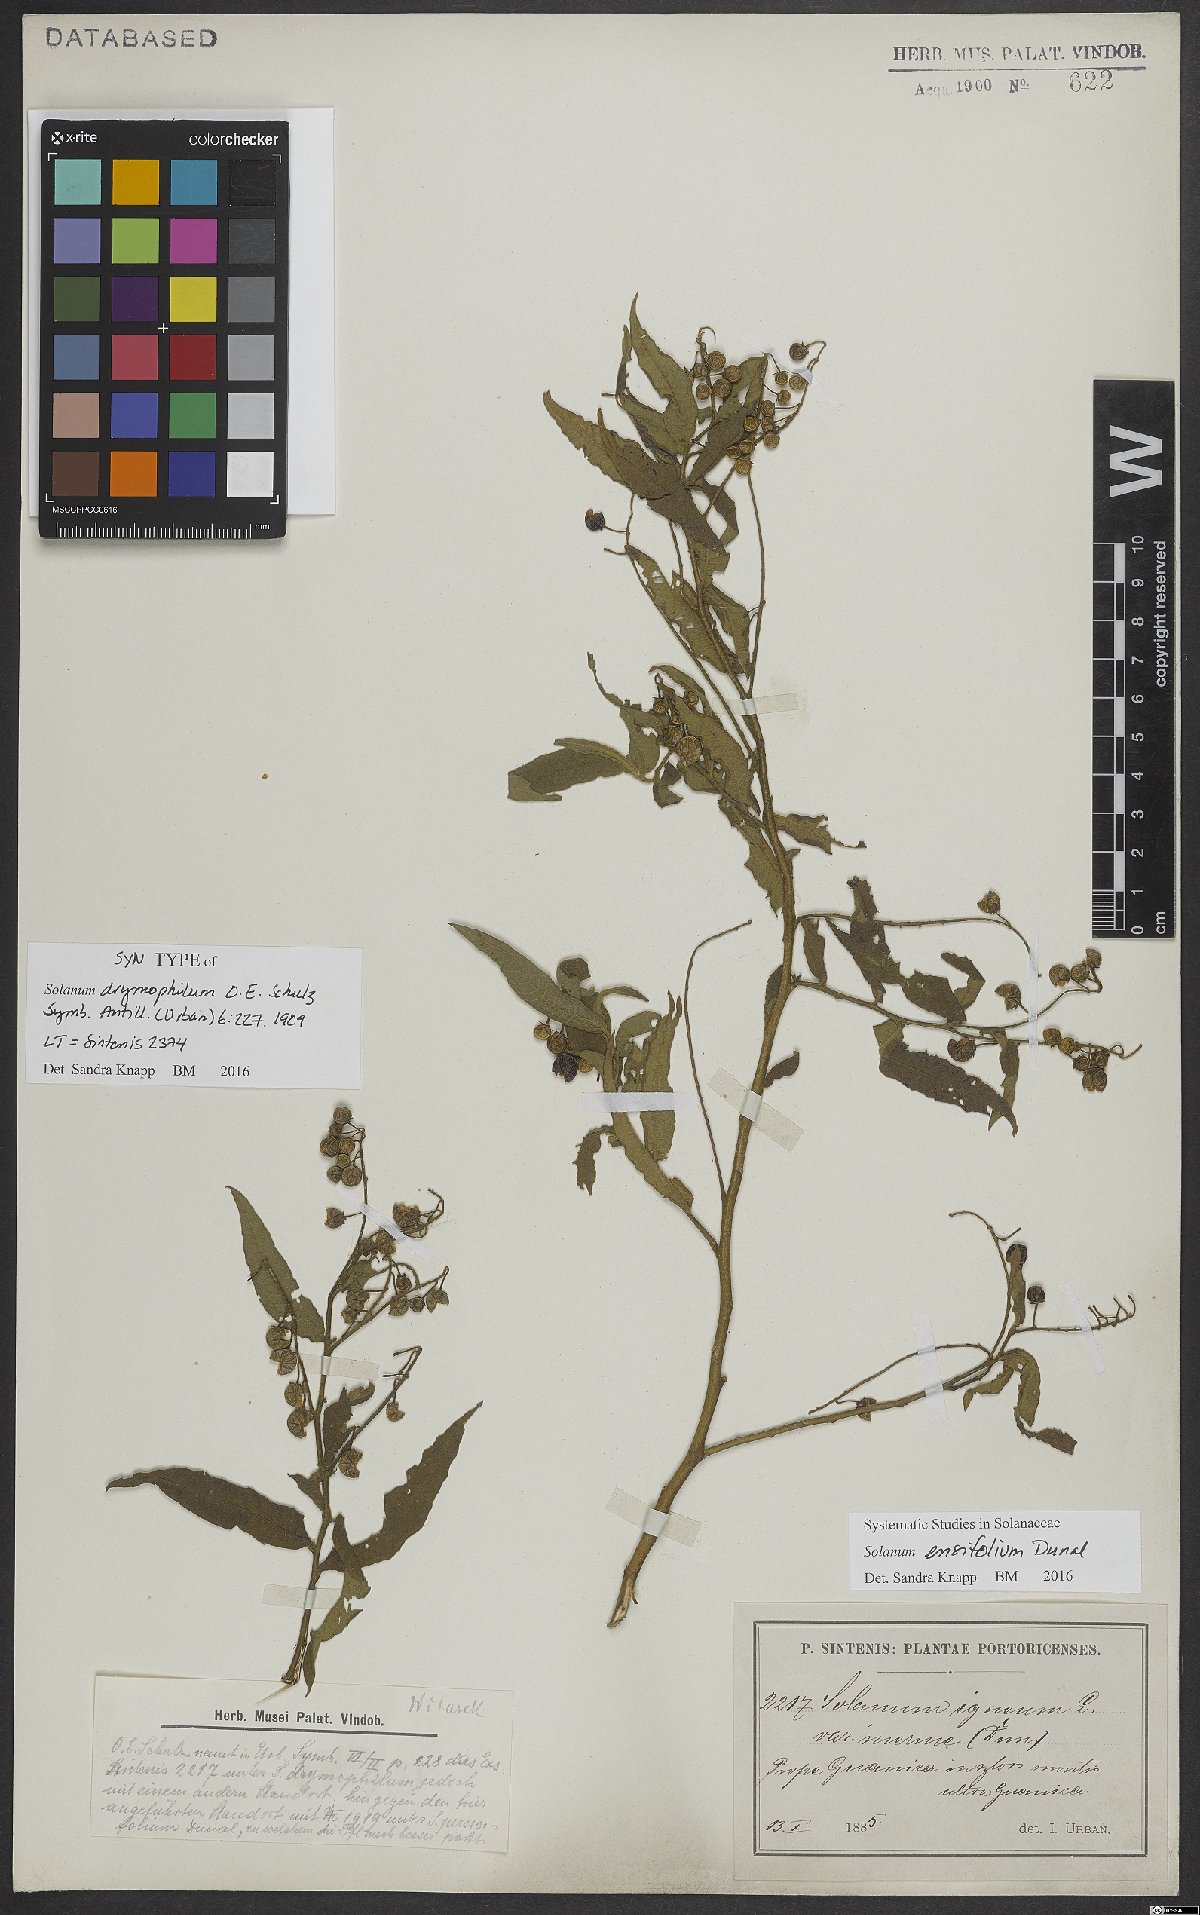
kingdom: Plantae
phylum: Tracheophyta
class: Magnoliopsida
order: Solanales
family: Solanaceae
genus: Solanum
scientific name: Solanum ensifolium
